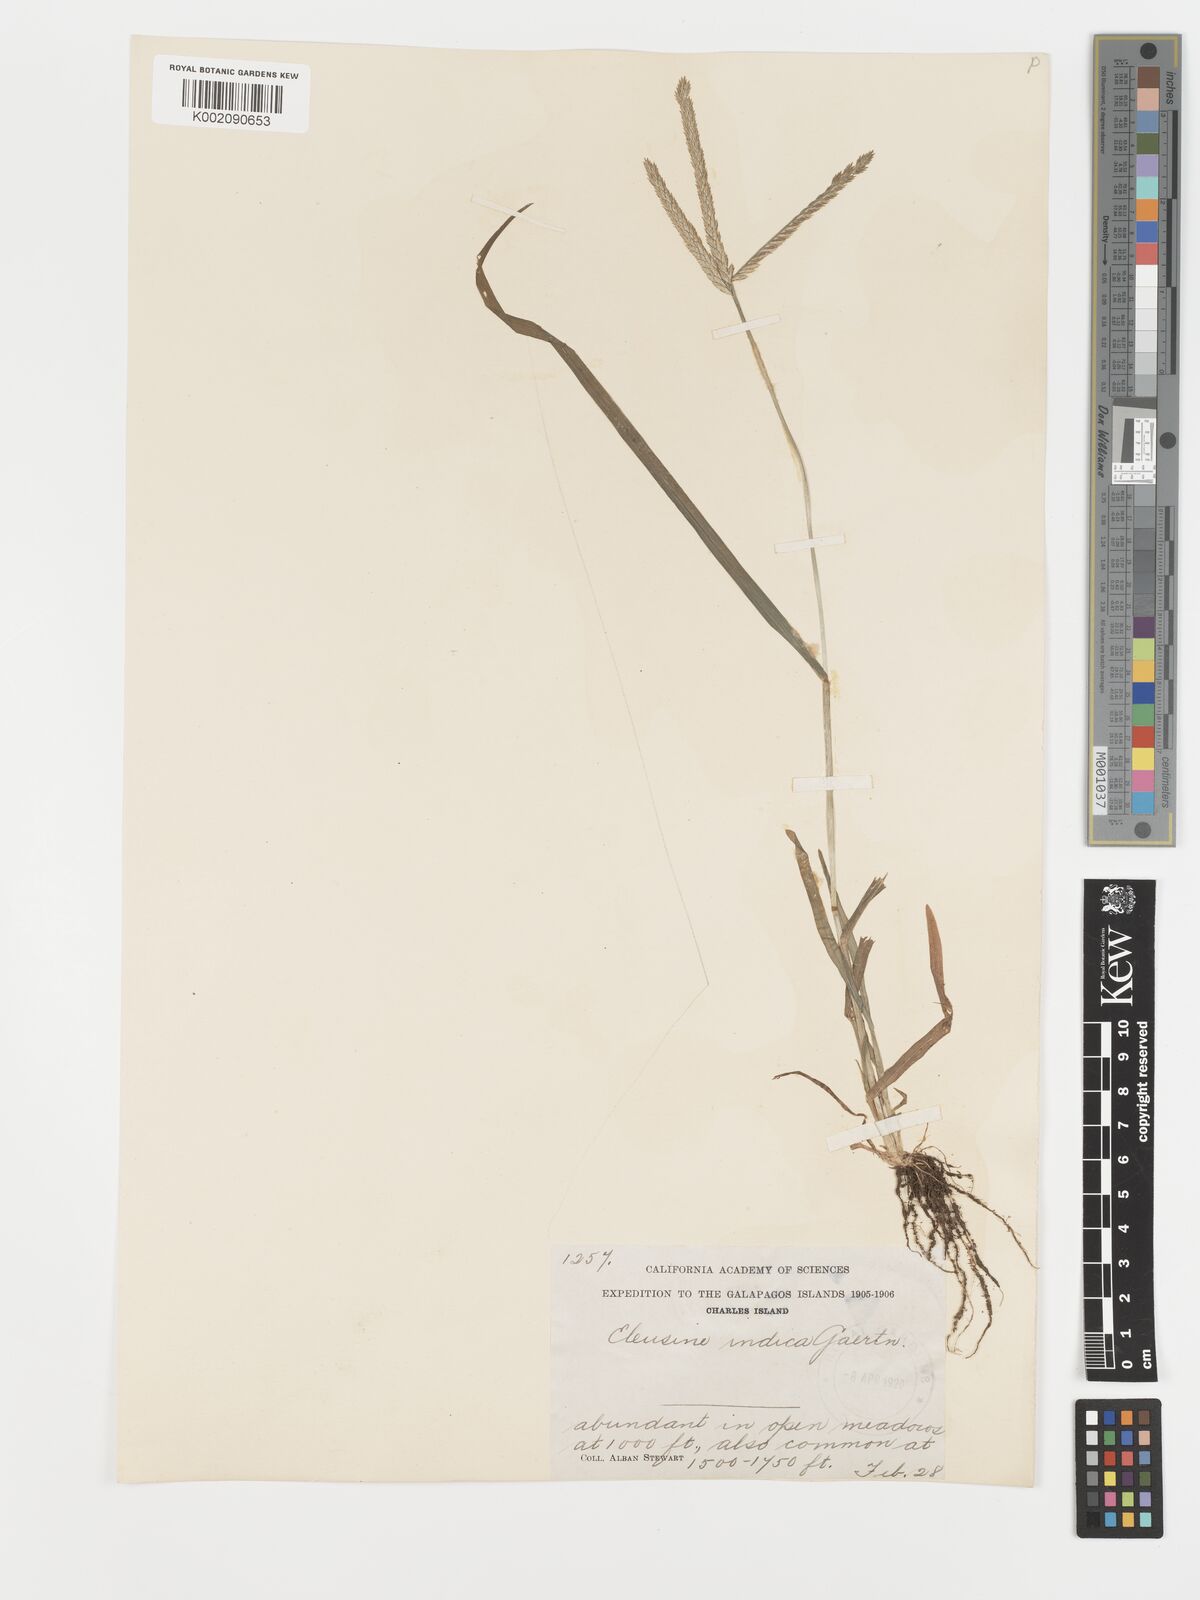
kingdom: Plantae
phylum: Tracheophyta
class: Liliopsida
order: Poales
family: Poaceae
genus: Eleusine
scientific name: Eleusine indica
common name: Yard-grass
